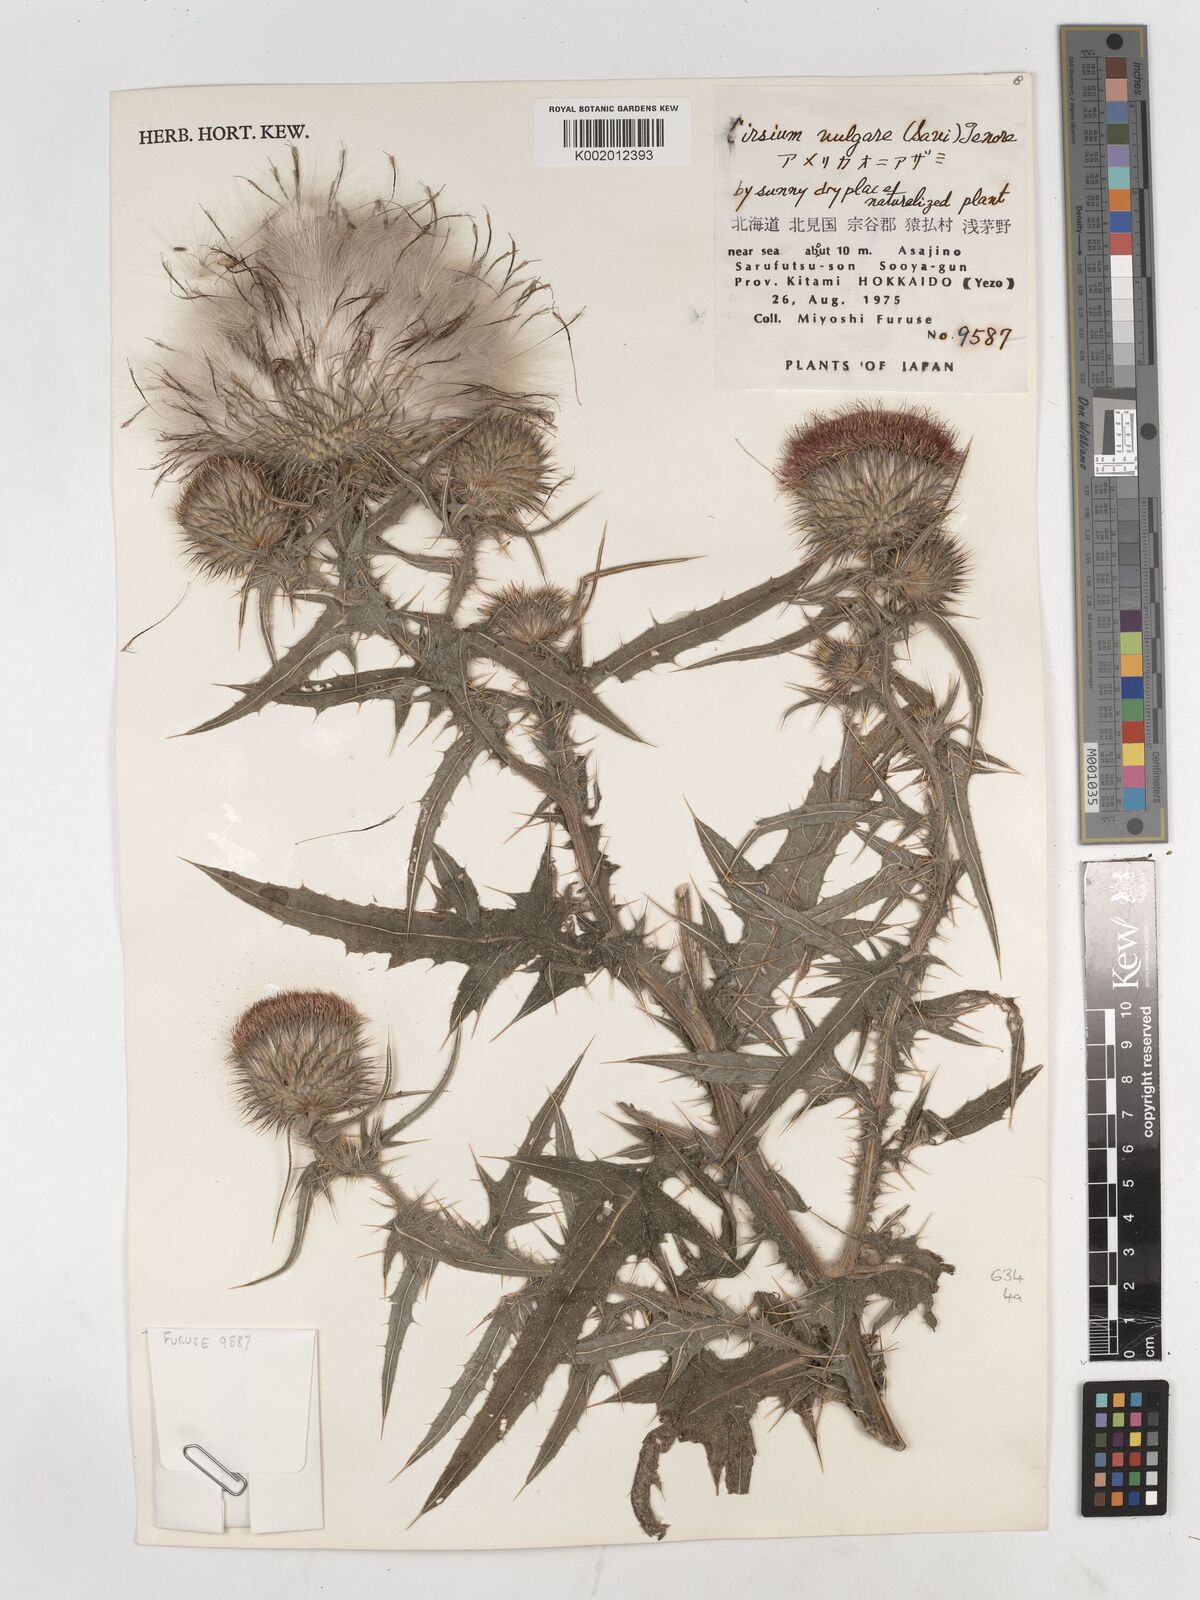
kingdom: Plantae
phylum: Tracheophyta
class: Magnoliopsida
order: Asterales
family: Asteraceae
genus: Cirsium
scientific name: Cirsium vulgare
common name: Bull thistle
